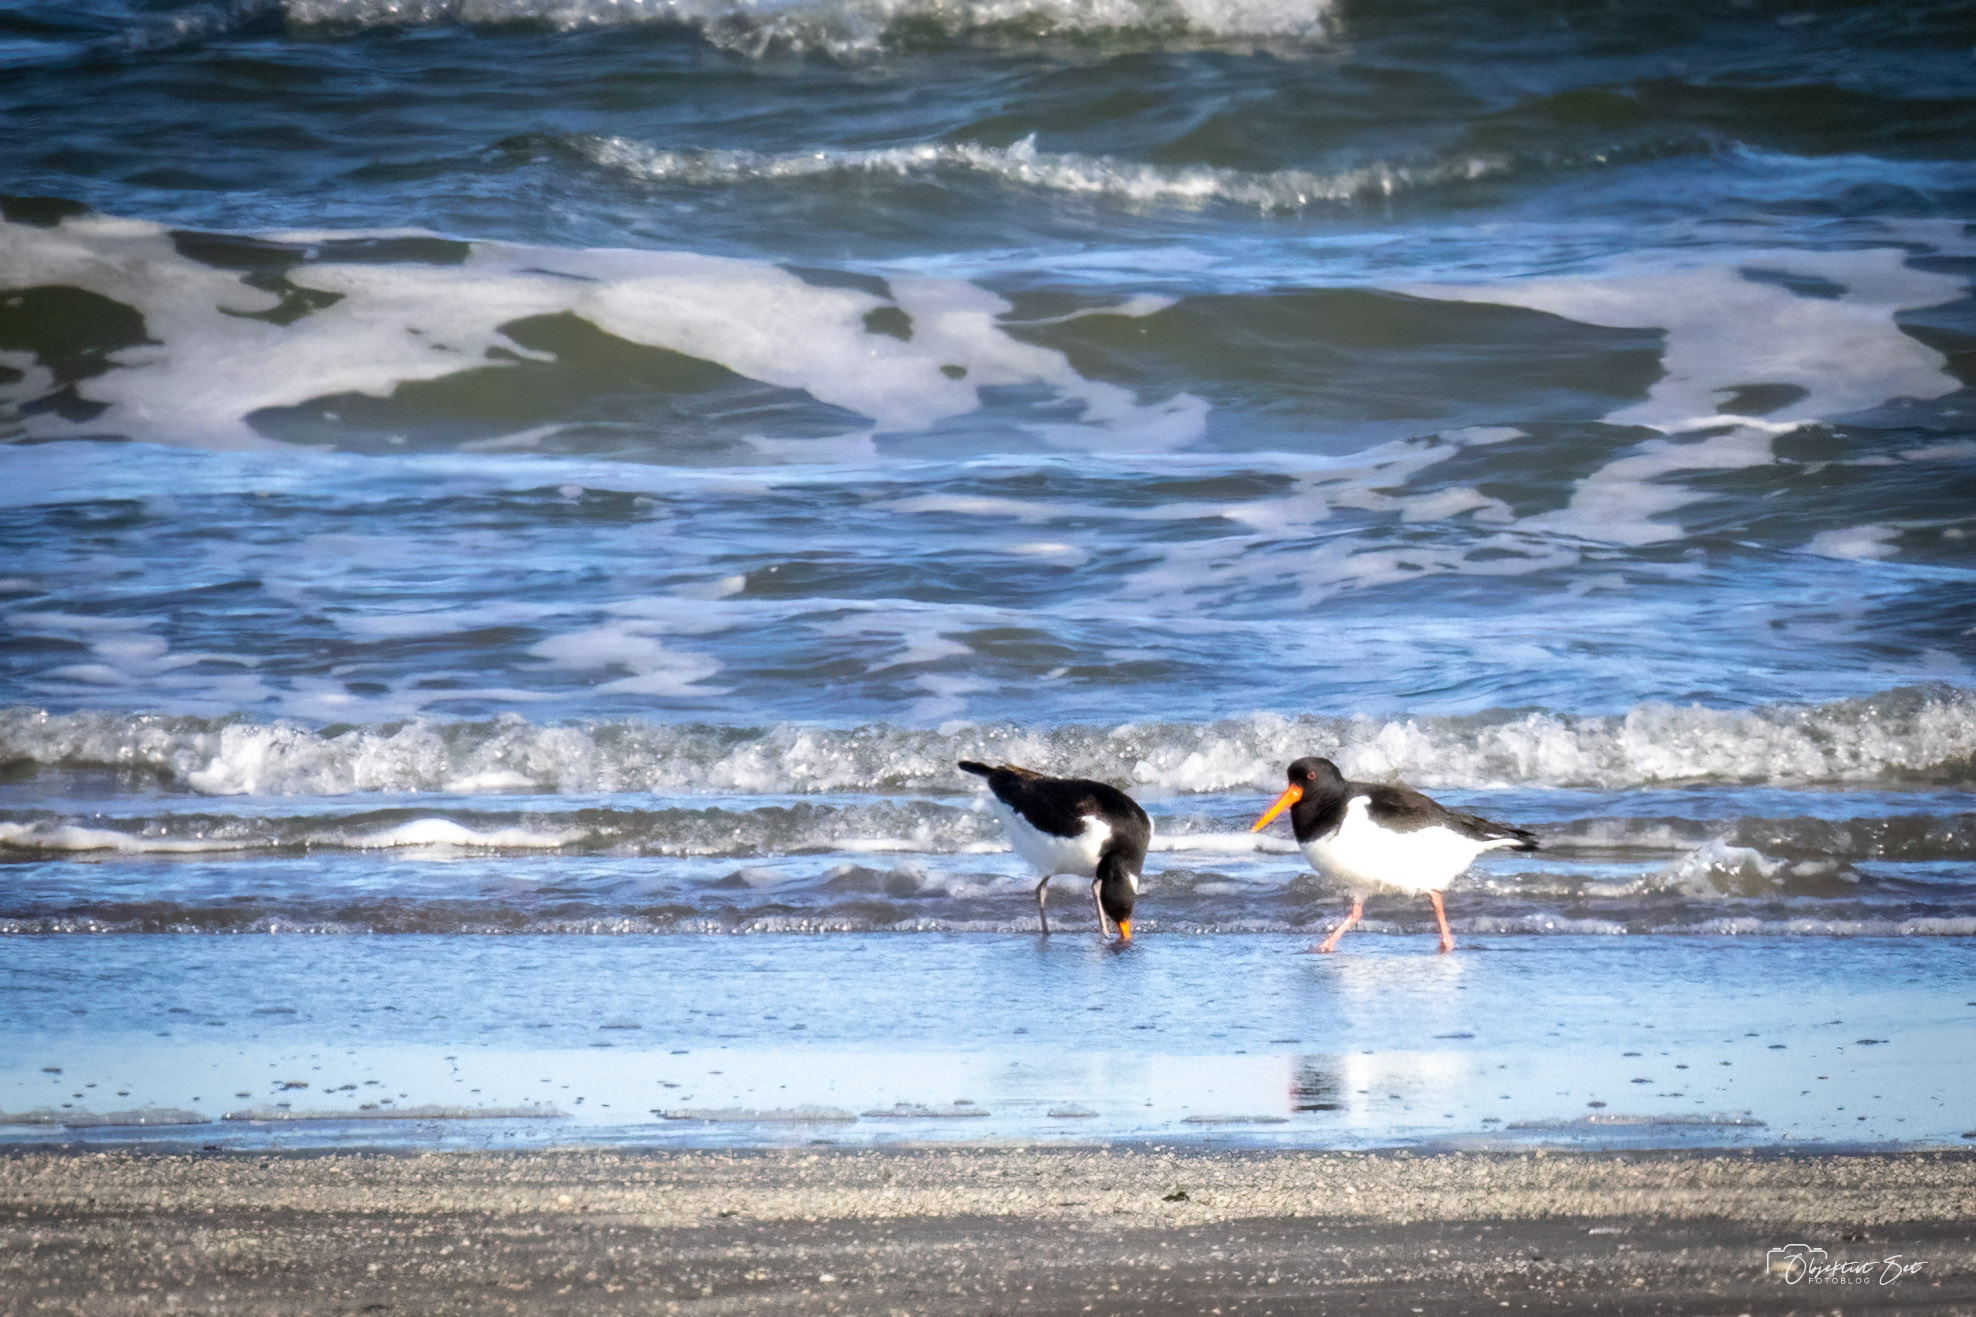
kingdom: Animalia
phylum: Chordata
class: Aves
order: Charadriiformes
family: Haematopodidae
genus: Haematopus
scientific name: Haematopus ostralegus
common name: Strandskade
